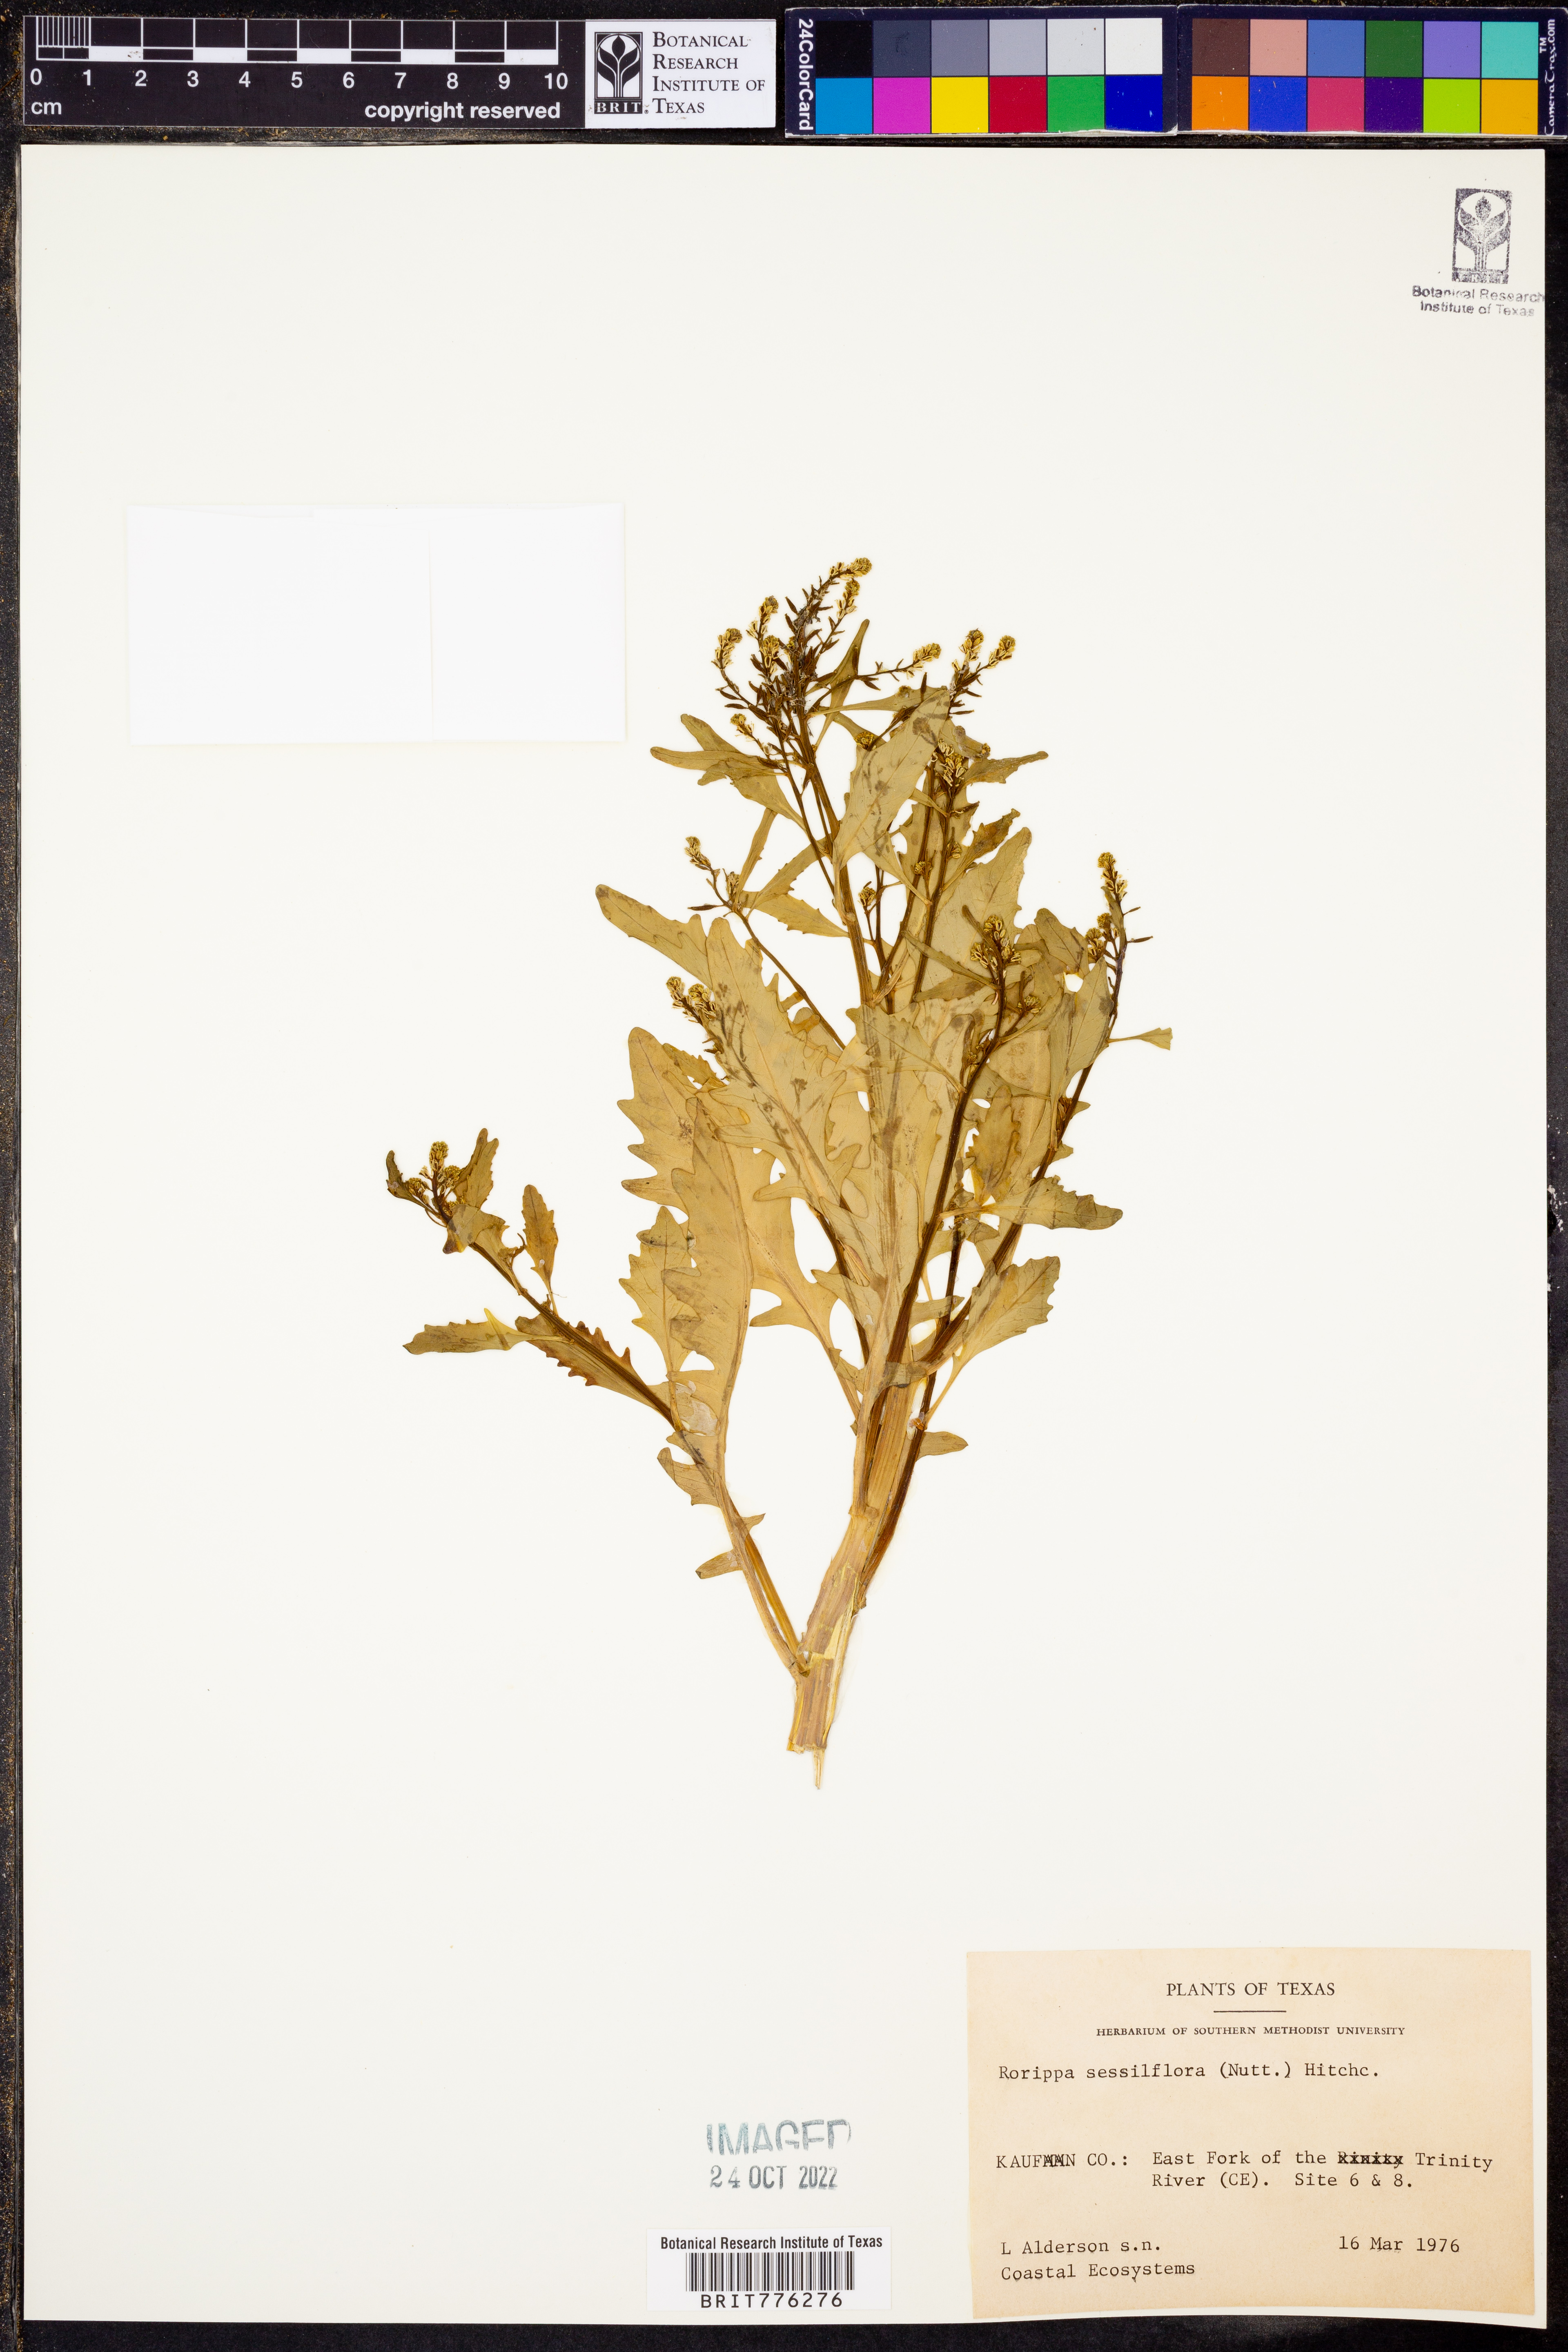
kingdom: Plantae
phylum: Tracheophyta
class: Magnoliopsida
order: Brassicales
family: Brassicaceae
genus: Rorippa
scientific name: Rorippa sessiliflora
